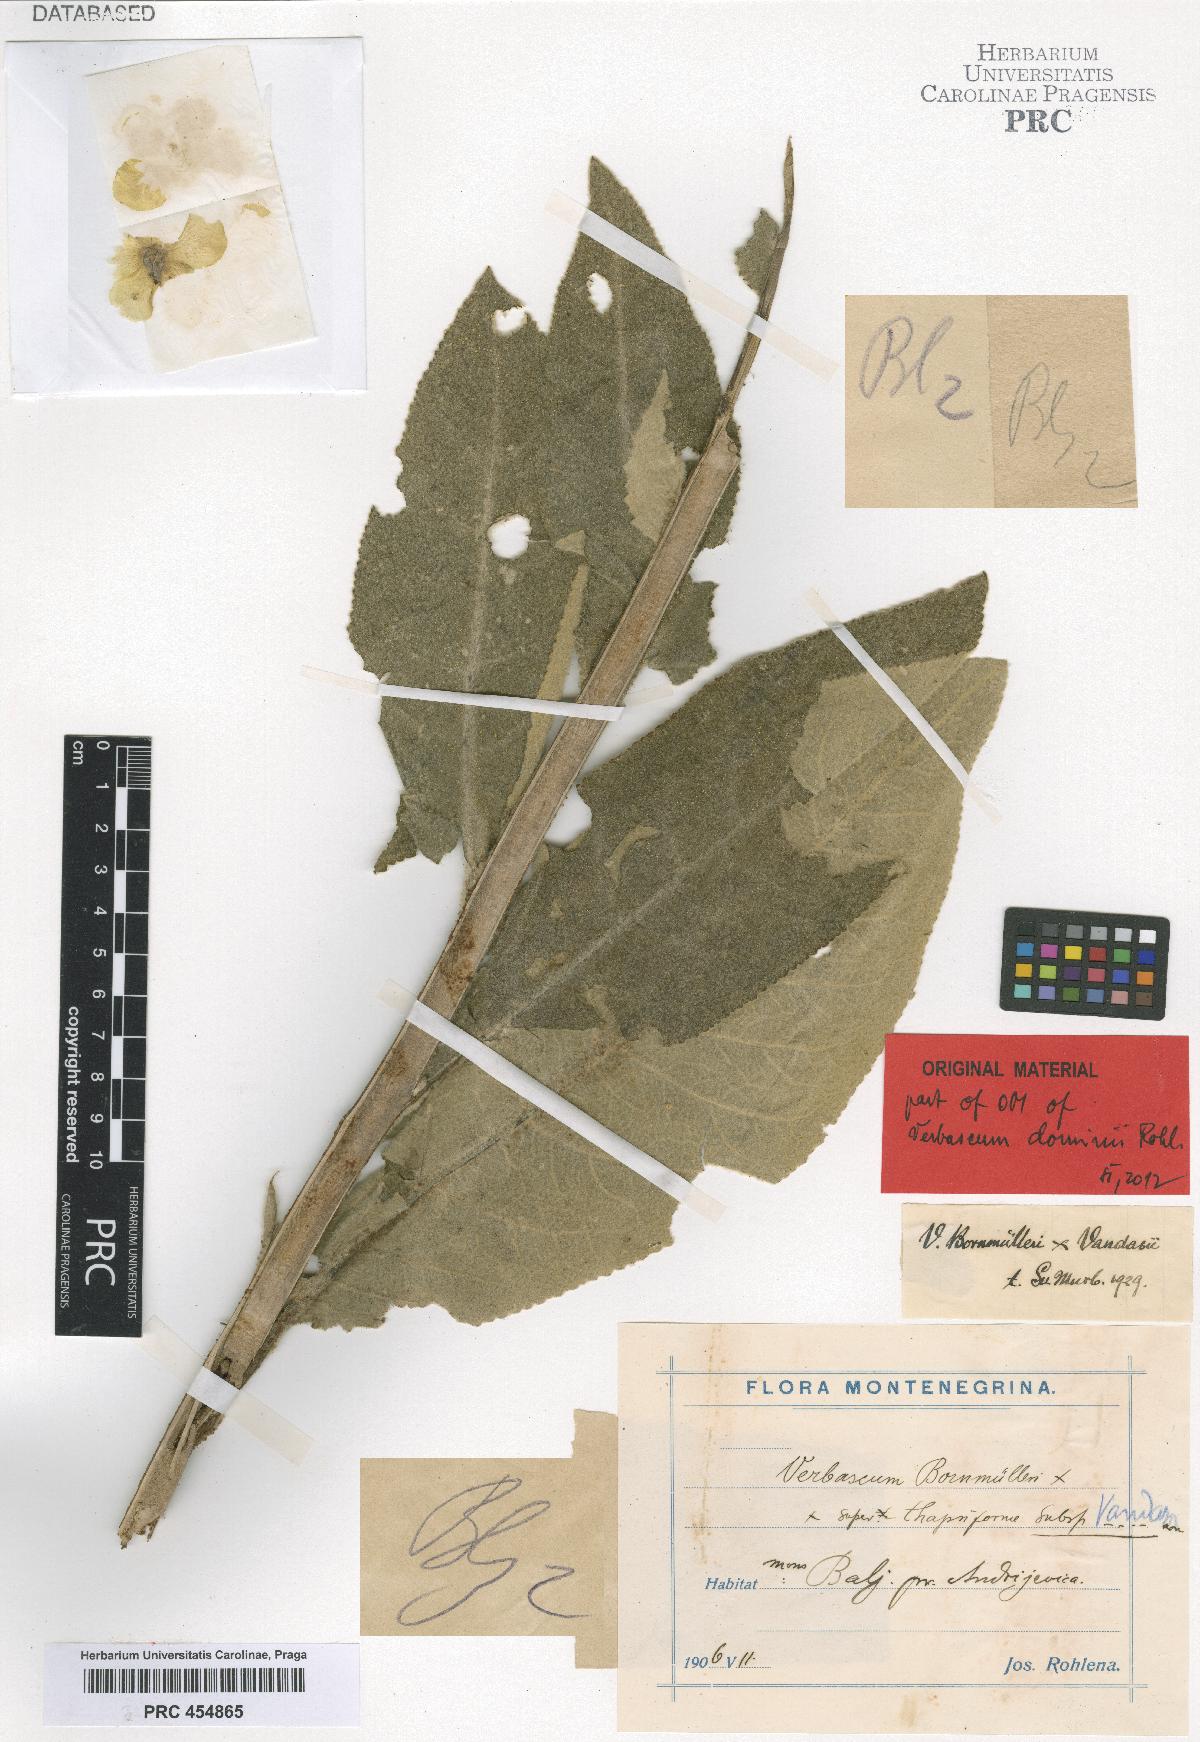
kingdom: Plantae
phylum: Tracheophyta
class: Magnoliopsida
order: Lamiales
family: Scrophulariaceae
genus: Verbascum
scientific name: Verbascum dominii
